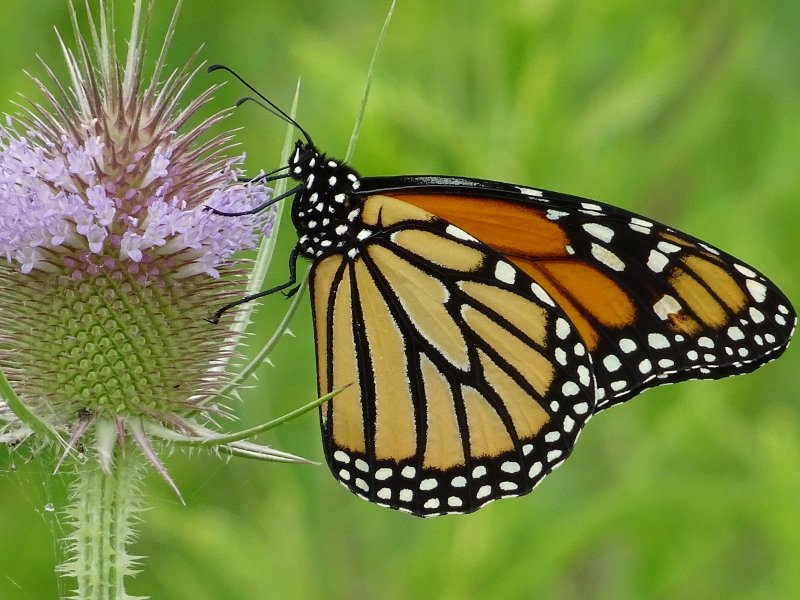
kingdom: Animalia
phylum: Arthropoda
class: Insecta
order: Lepidoptera
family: Nymphalidae
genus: Danaus
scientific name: Danaus plexippus
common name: Monarch
